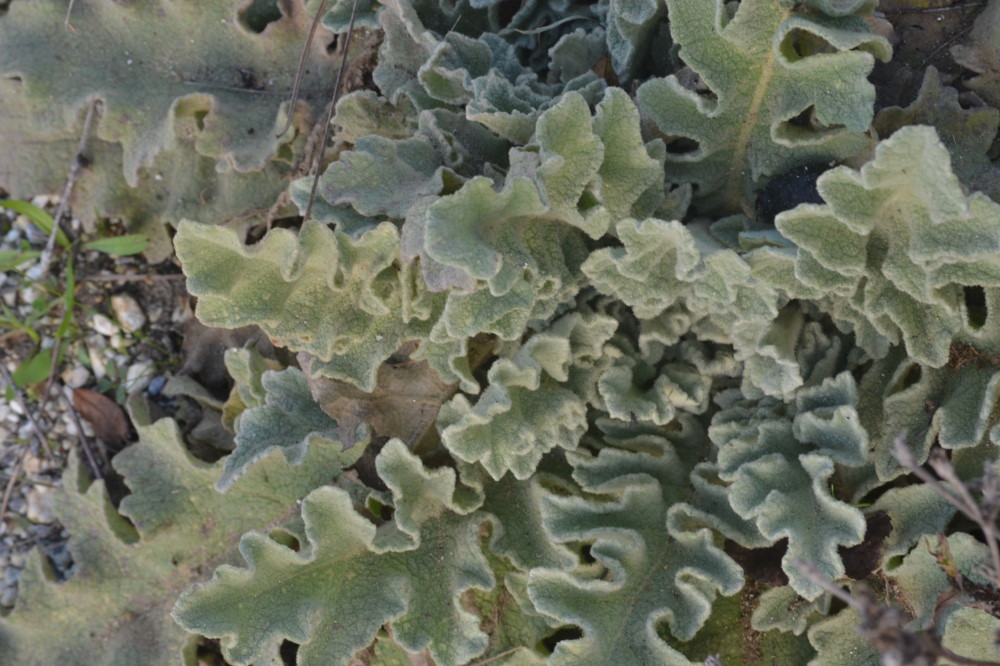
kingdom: Plantae
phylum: Tracheophyta
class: Magnoliopsida
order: Lamiales
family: Scrophulariaceae
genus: Verbascum
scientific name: Verbascum undulatum
